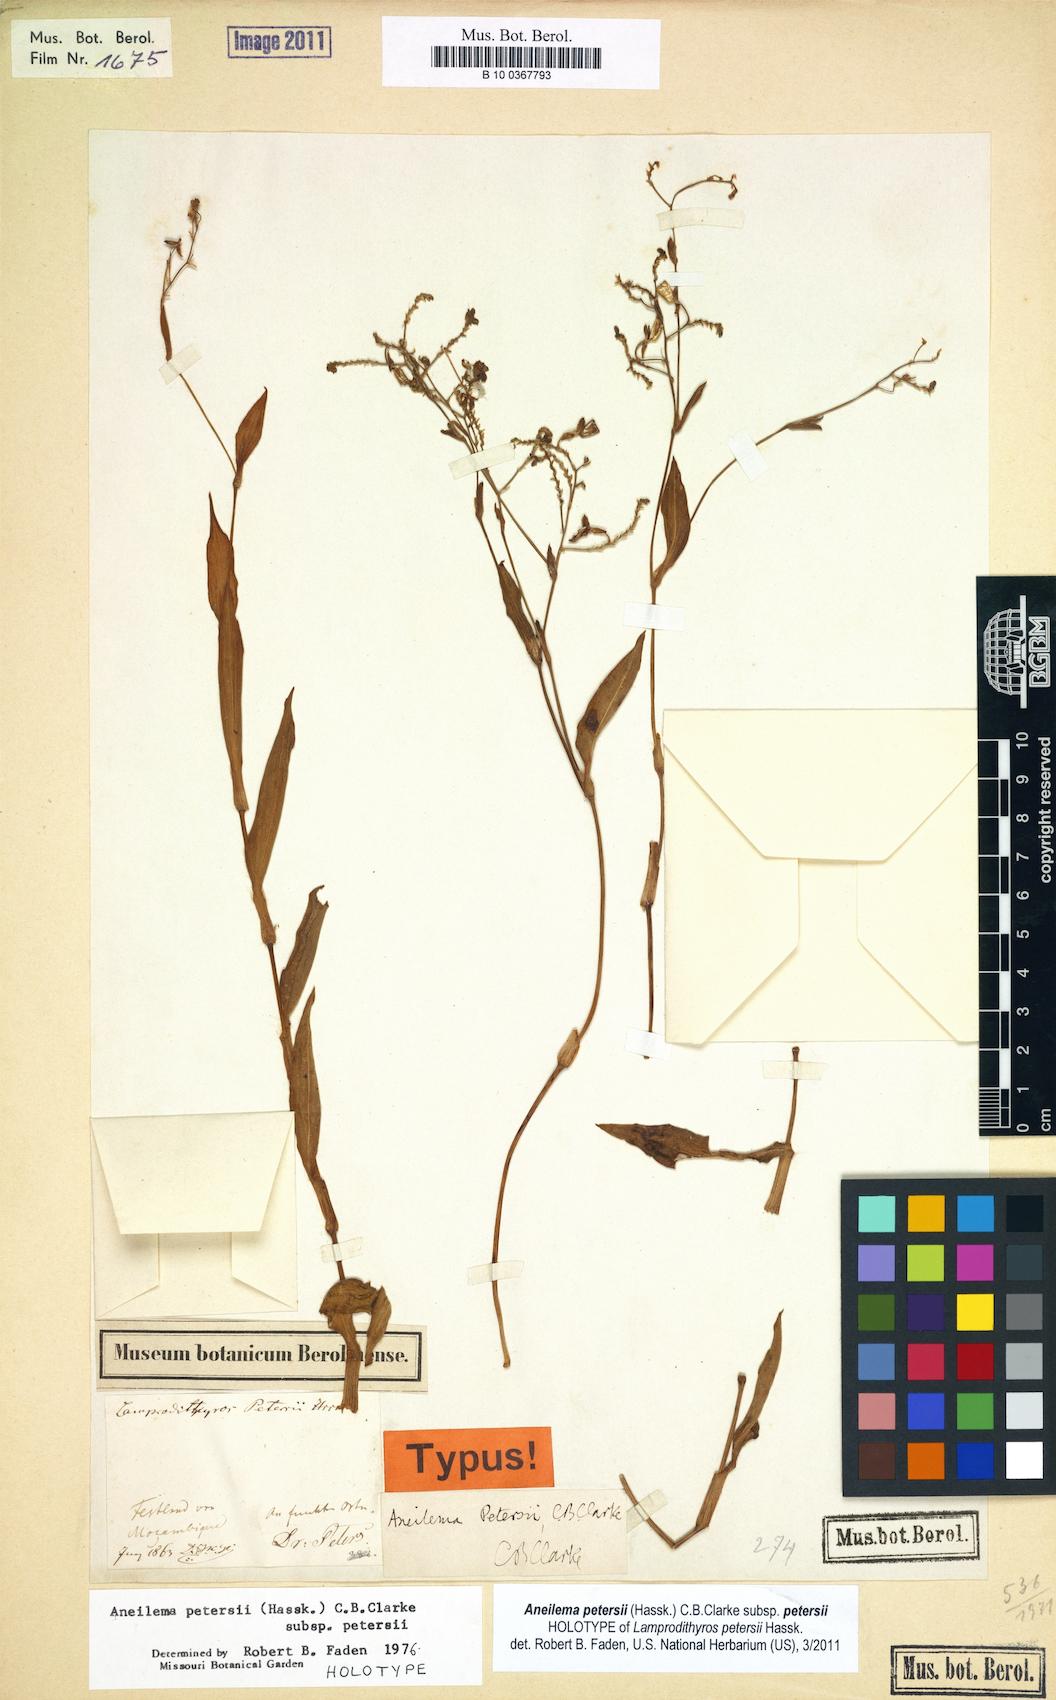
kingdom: Plantae
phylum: Tracheophyta
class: Liliopsida
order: Commelinales
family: Commelinaceae
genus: Aneilema
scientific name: Aneilema petersii
